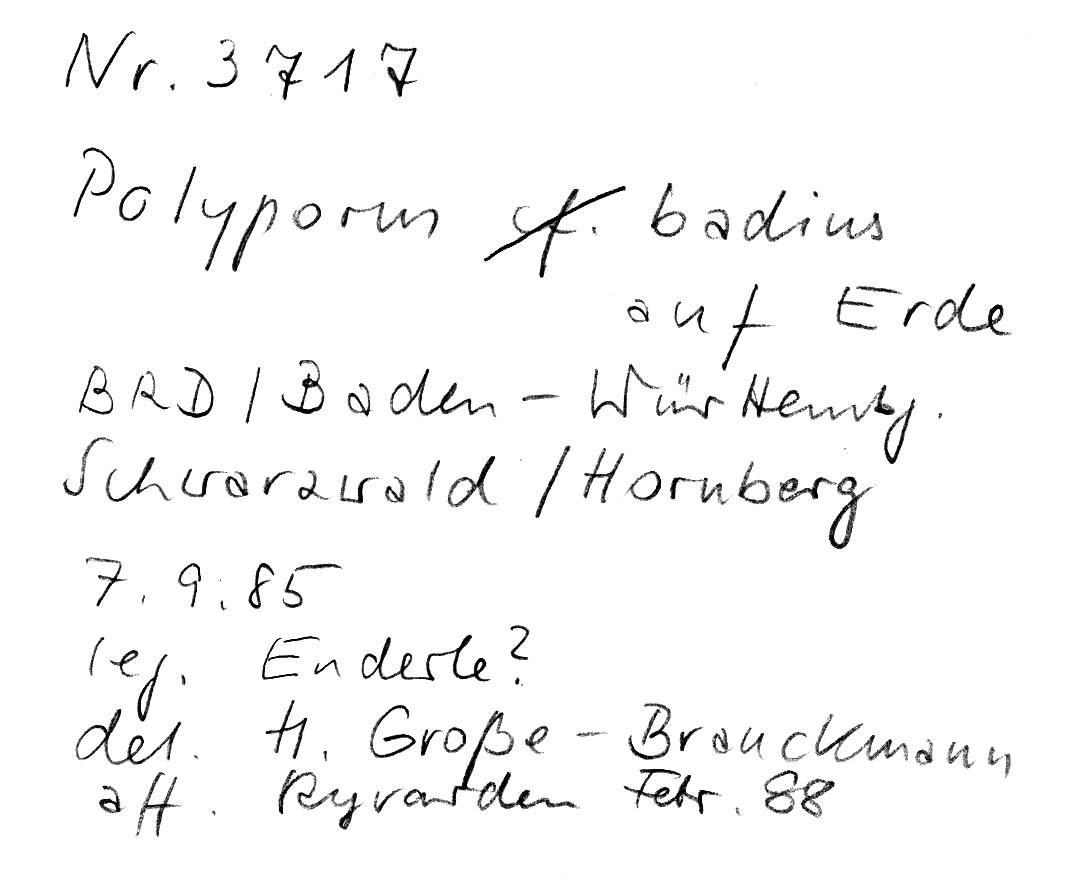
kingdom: Fungi
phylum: Basidiomycota
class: Agaricomycetes
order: Polyporales
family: Polyporaceae
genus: Picipes
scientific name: Picipes badius
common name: Bay polypore
